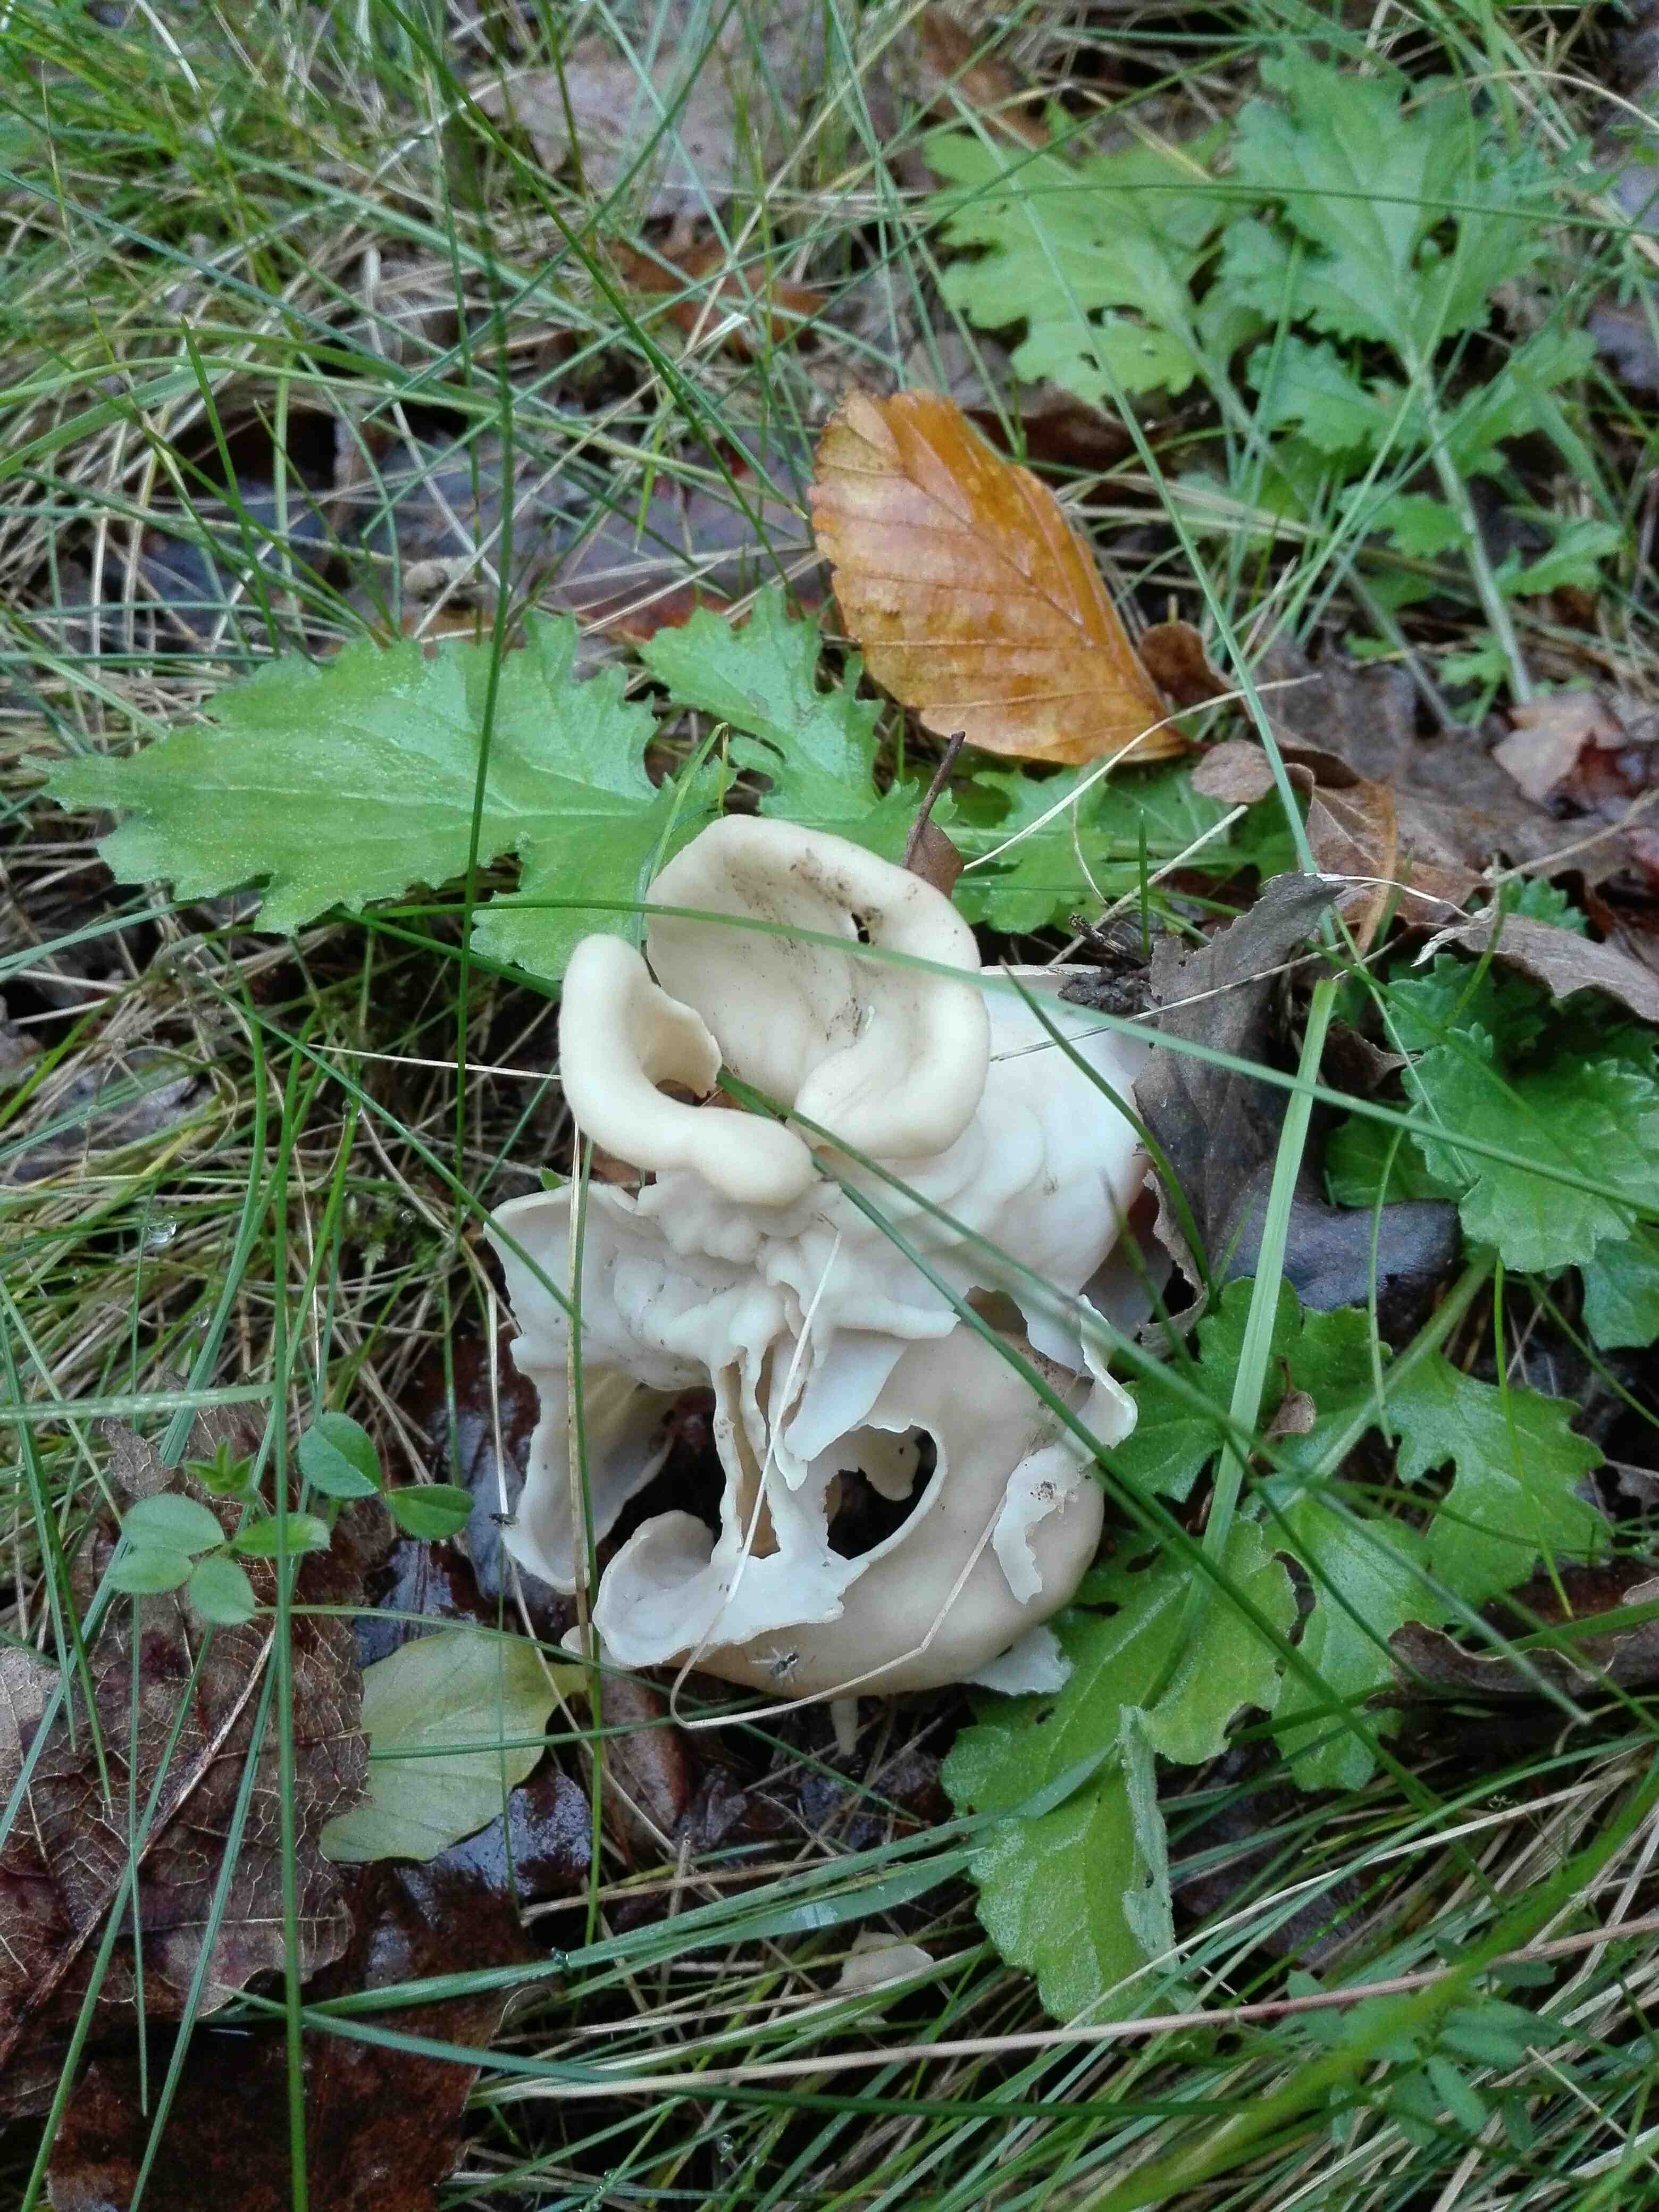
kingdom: Fungi
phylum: Ascomycota
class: Pezizomycetes
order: Pezizales
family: Helvellaceae
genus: Helvella
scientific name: Helvella crispa
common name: kruset foldhat
